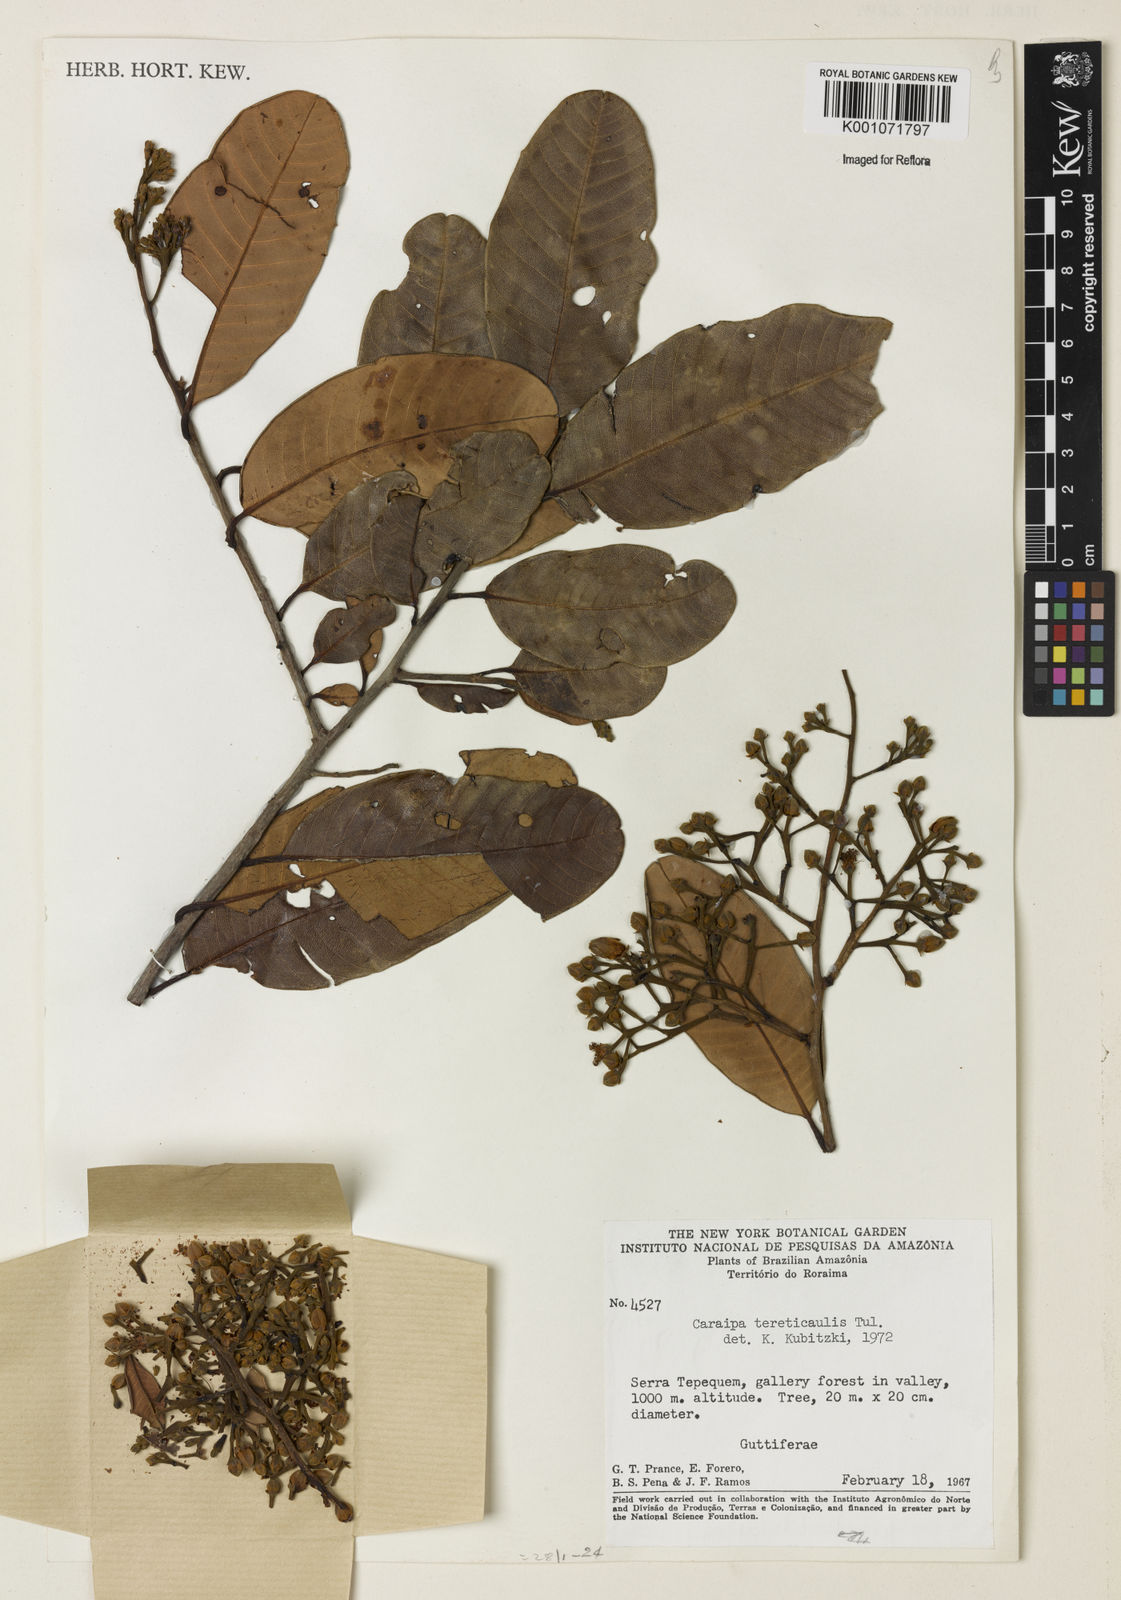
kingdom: Plantae
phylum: Tracheophyta
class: Magnoliopsida
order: Malpighiales
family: Calophyllaceae
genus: Caraipa
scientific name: Caraipa
